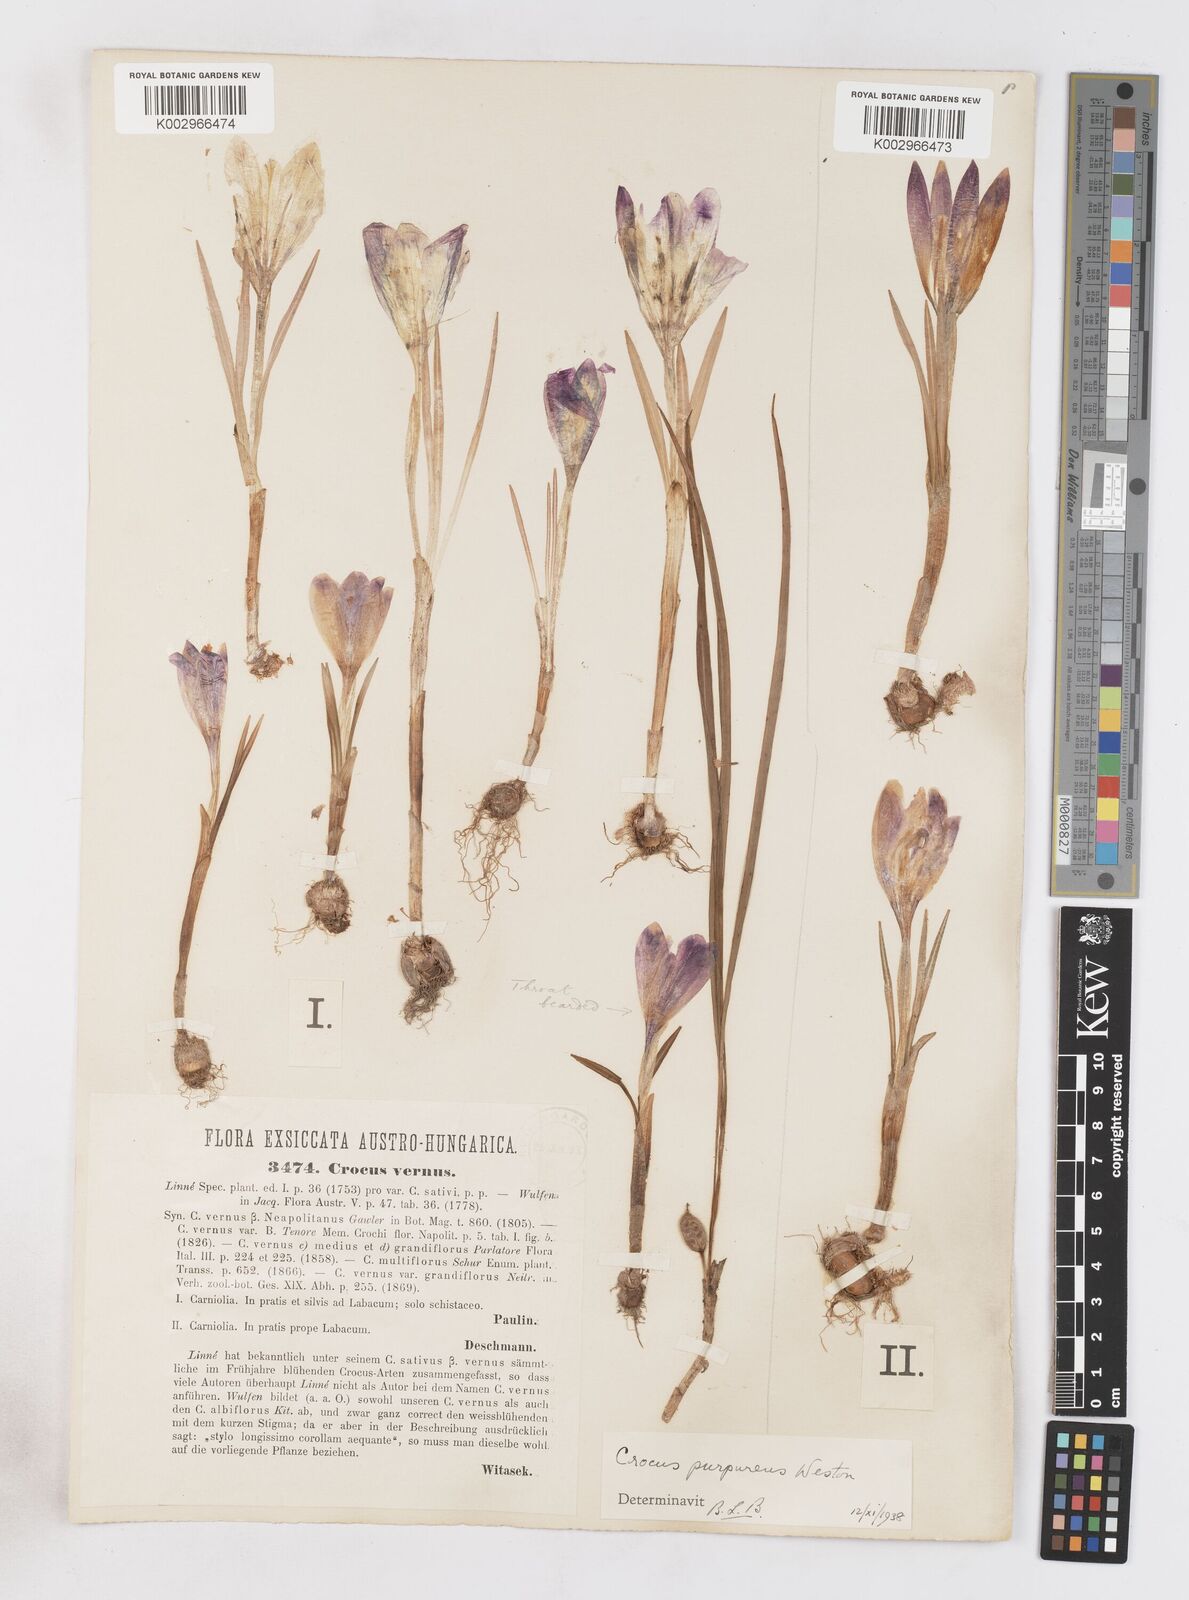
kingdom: Plantae
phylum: Tracheophyta
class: Liliopsida
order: Asparagales
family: Iridaceae
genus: Crocus
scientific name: Crocus vernus
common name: Spring crocus
